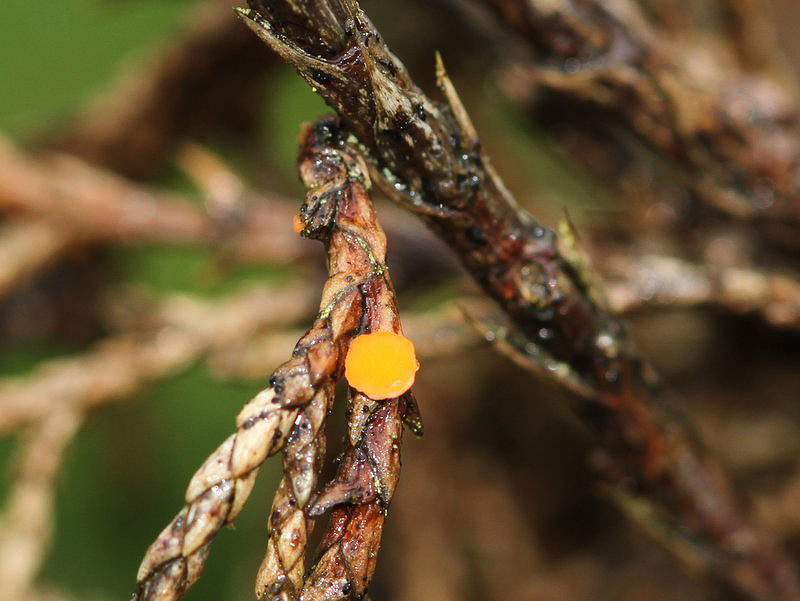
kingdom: Fungi
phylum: Ascomycota
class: Pezizomycetes
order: Pezizales
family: Sarcoscyphaceae
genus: Pithya
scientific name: Pithya cupressina
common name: lille dukatbæger
